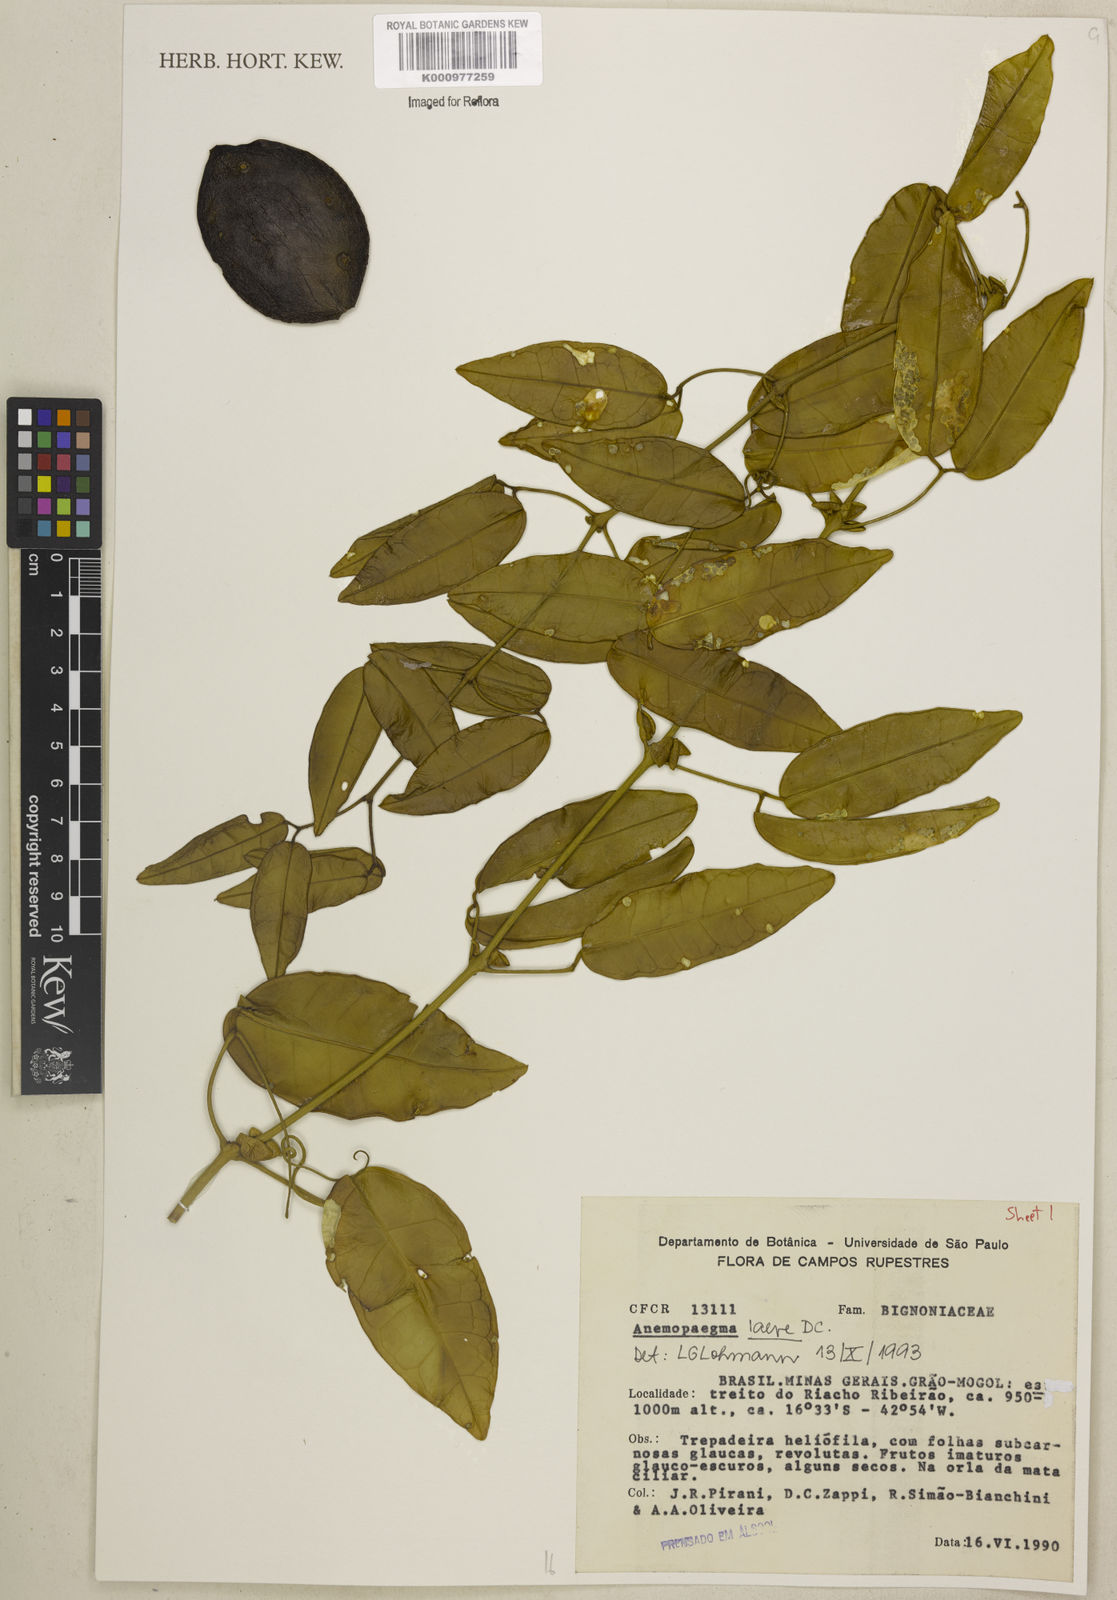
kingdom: Plantae
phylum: Tracheophyta
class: Magnoliopsida
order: Lamiales
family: Bignoniaceae
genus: Anemopaegma
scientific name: Anemopaegma laeve
